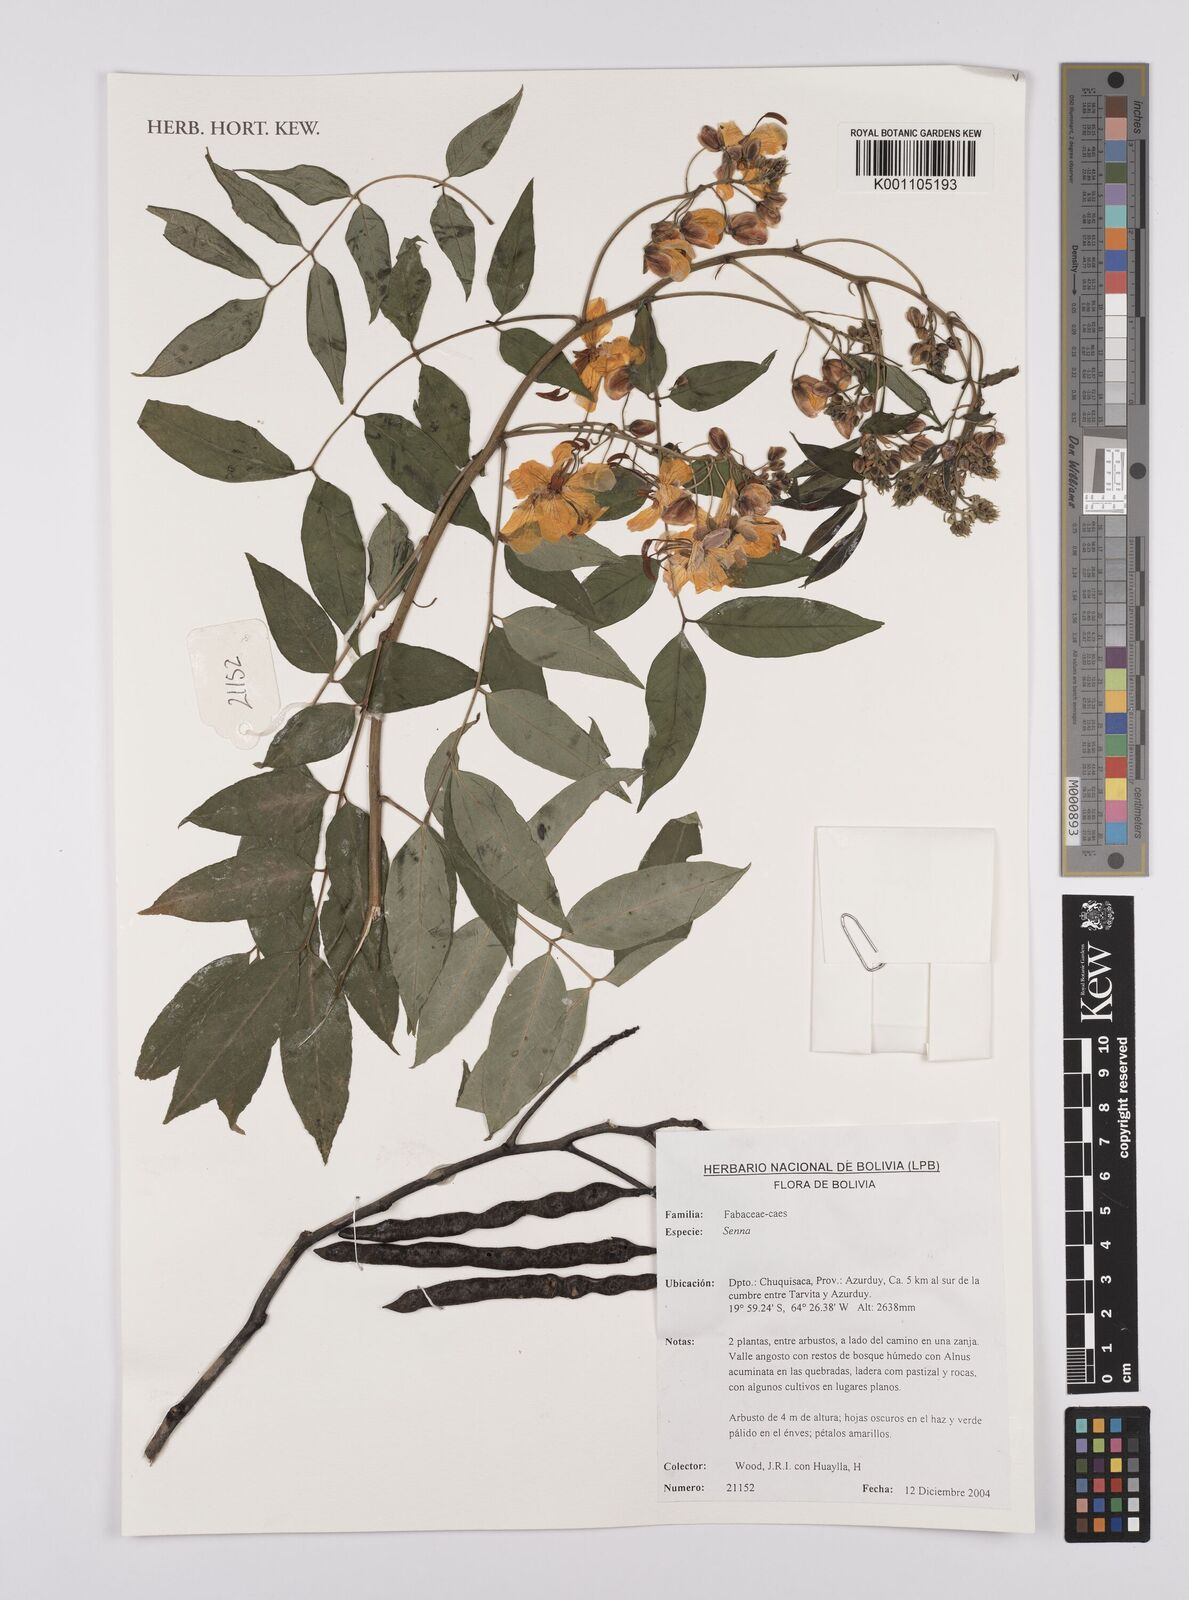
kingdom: Plantae
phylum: Tracheophyta
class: Magnoliopsida
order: Fabales
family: Fabaceae
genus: Senna
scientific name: Senna
